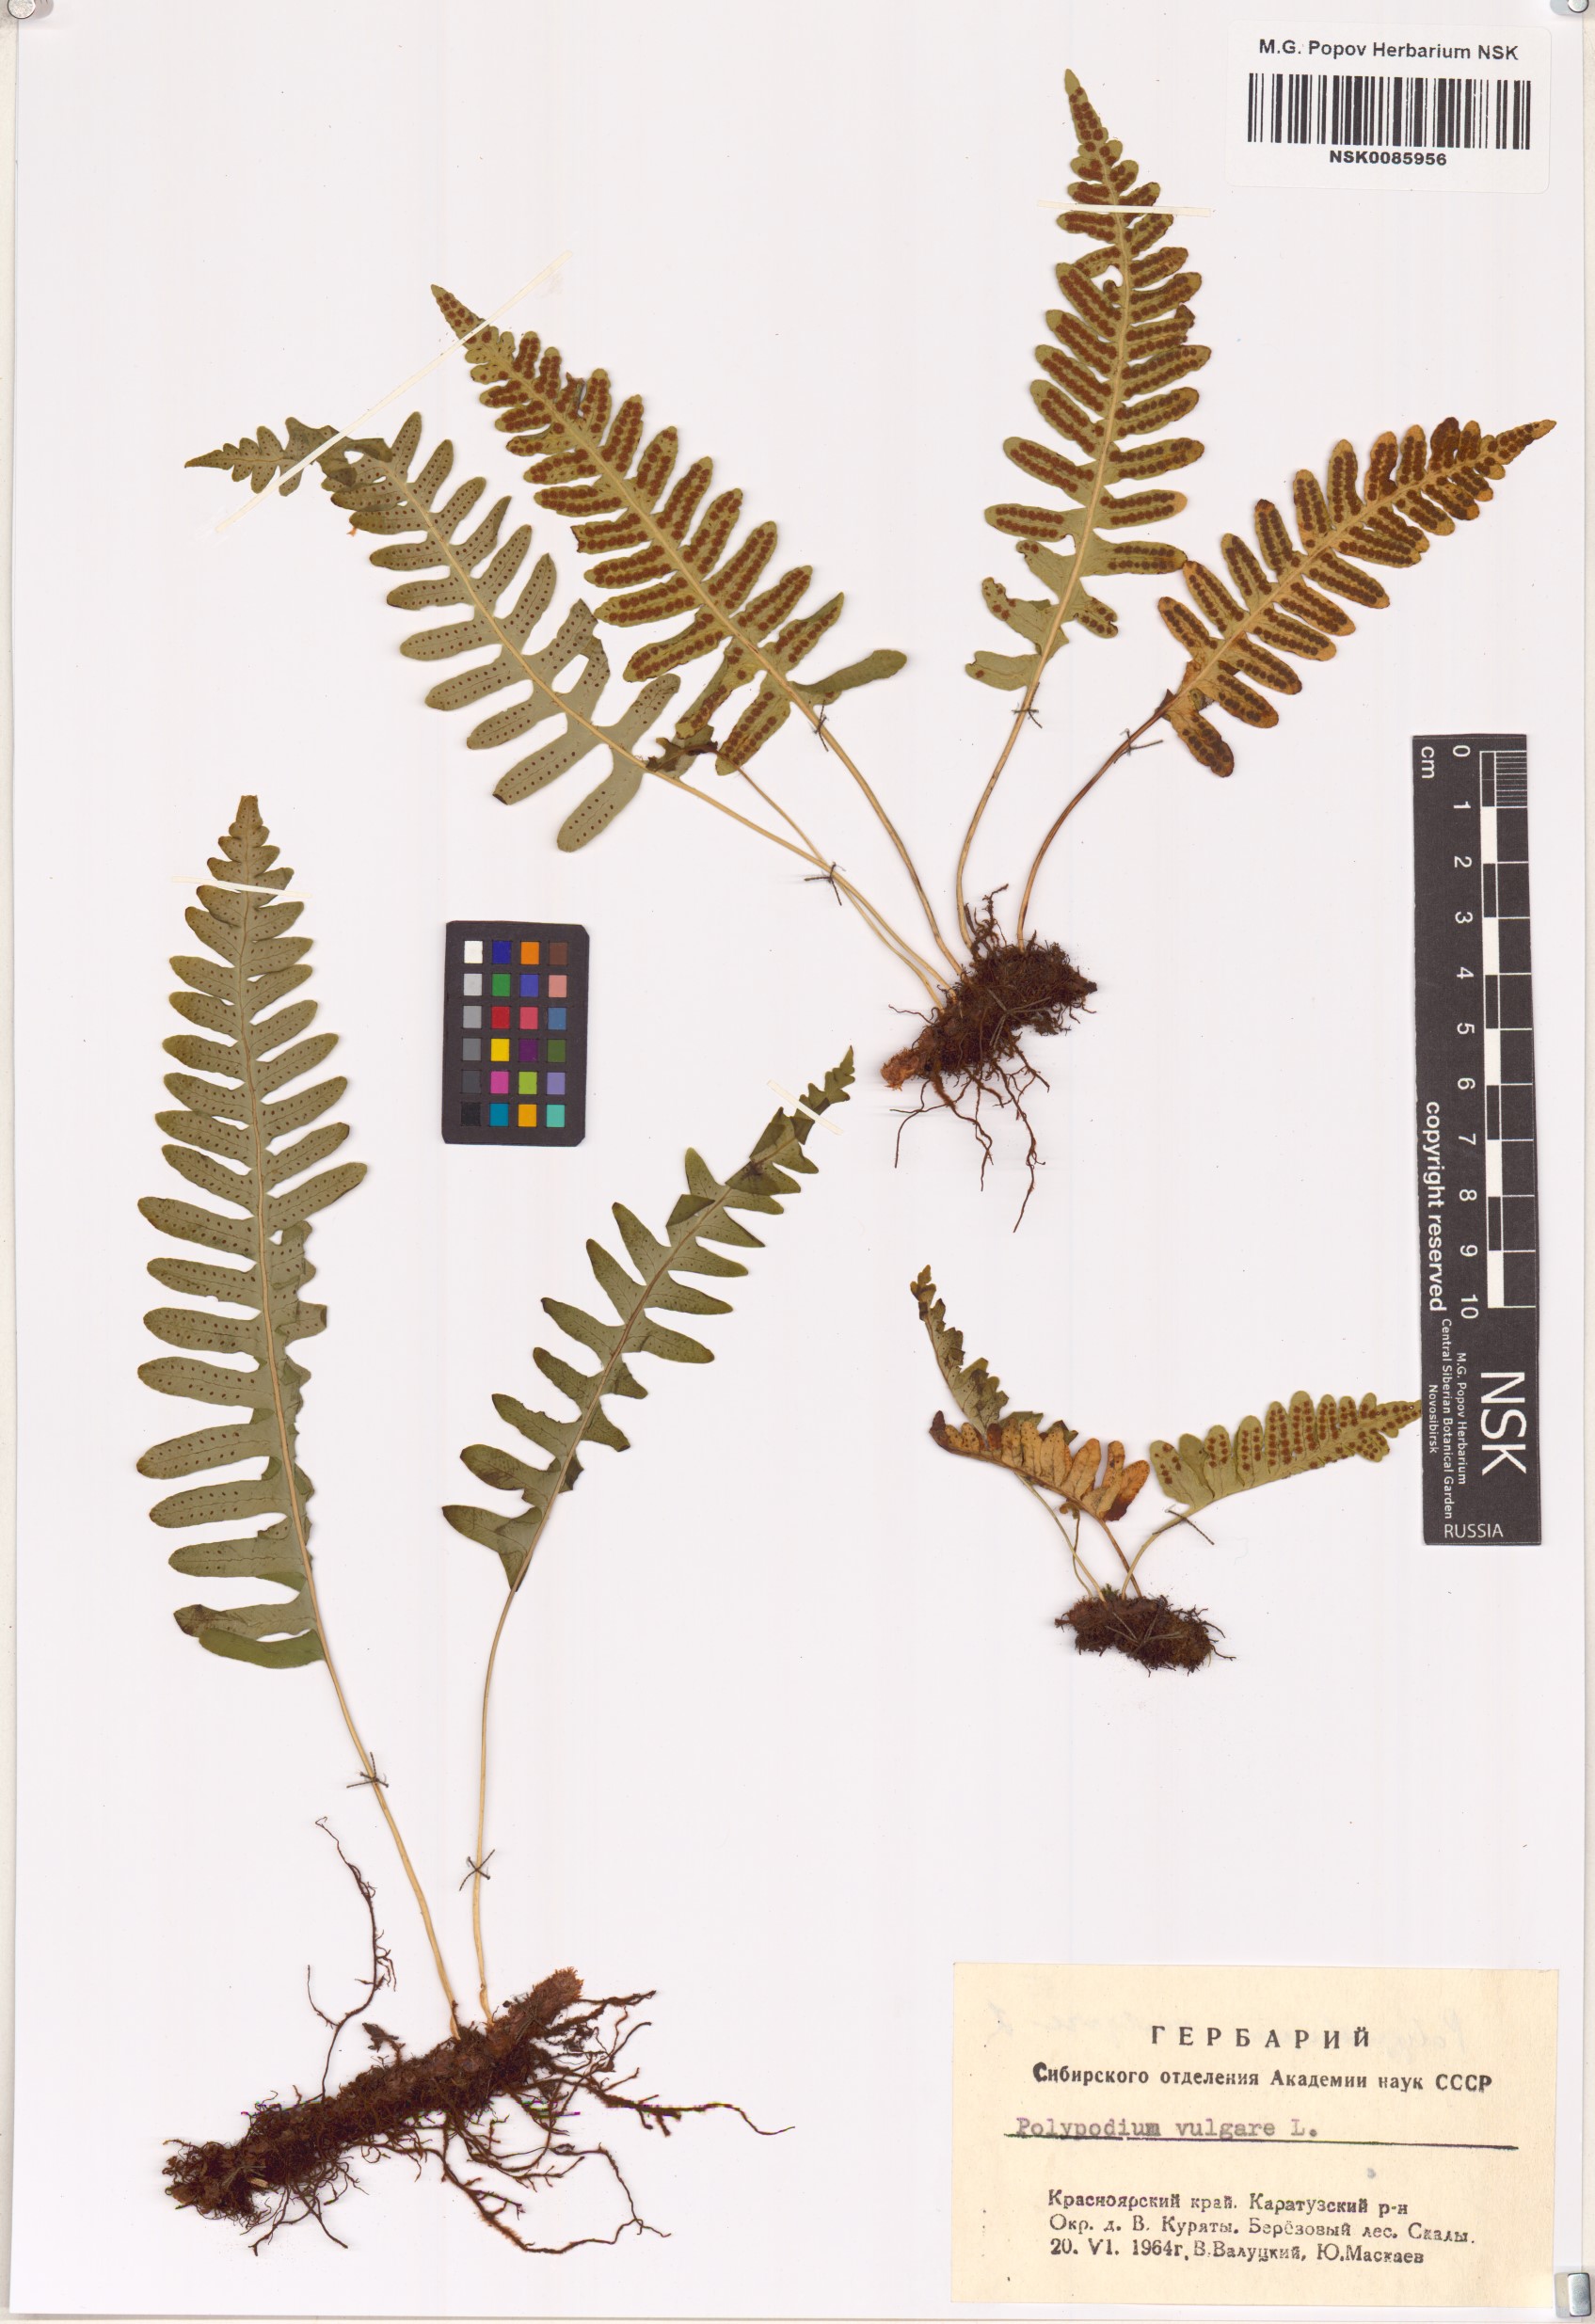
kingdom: Plantae
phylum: Tracheophyta
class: Polypodiopsida
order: Polypodiales
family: Polypodiaceae
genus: Polypodium
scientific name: Polypodium vulgare
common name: Common polypody
